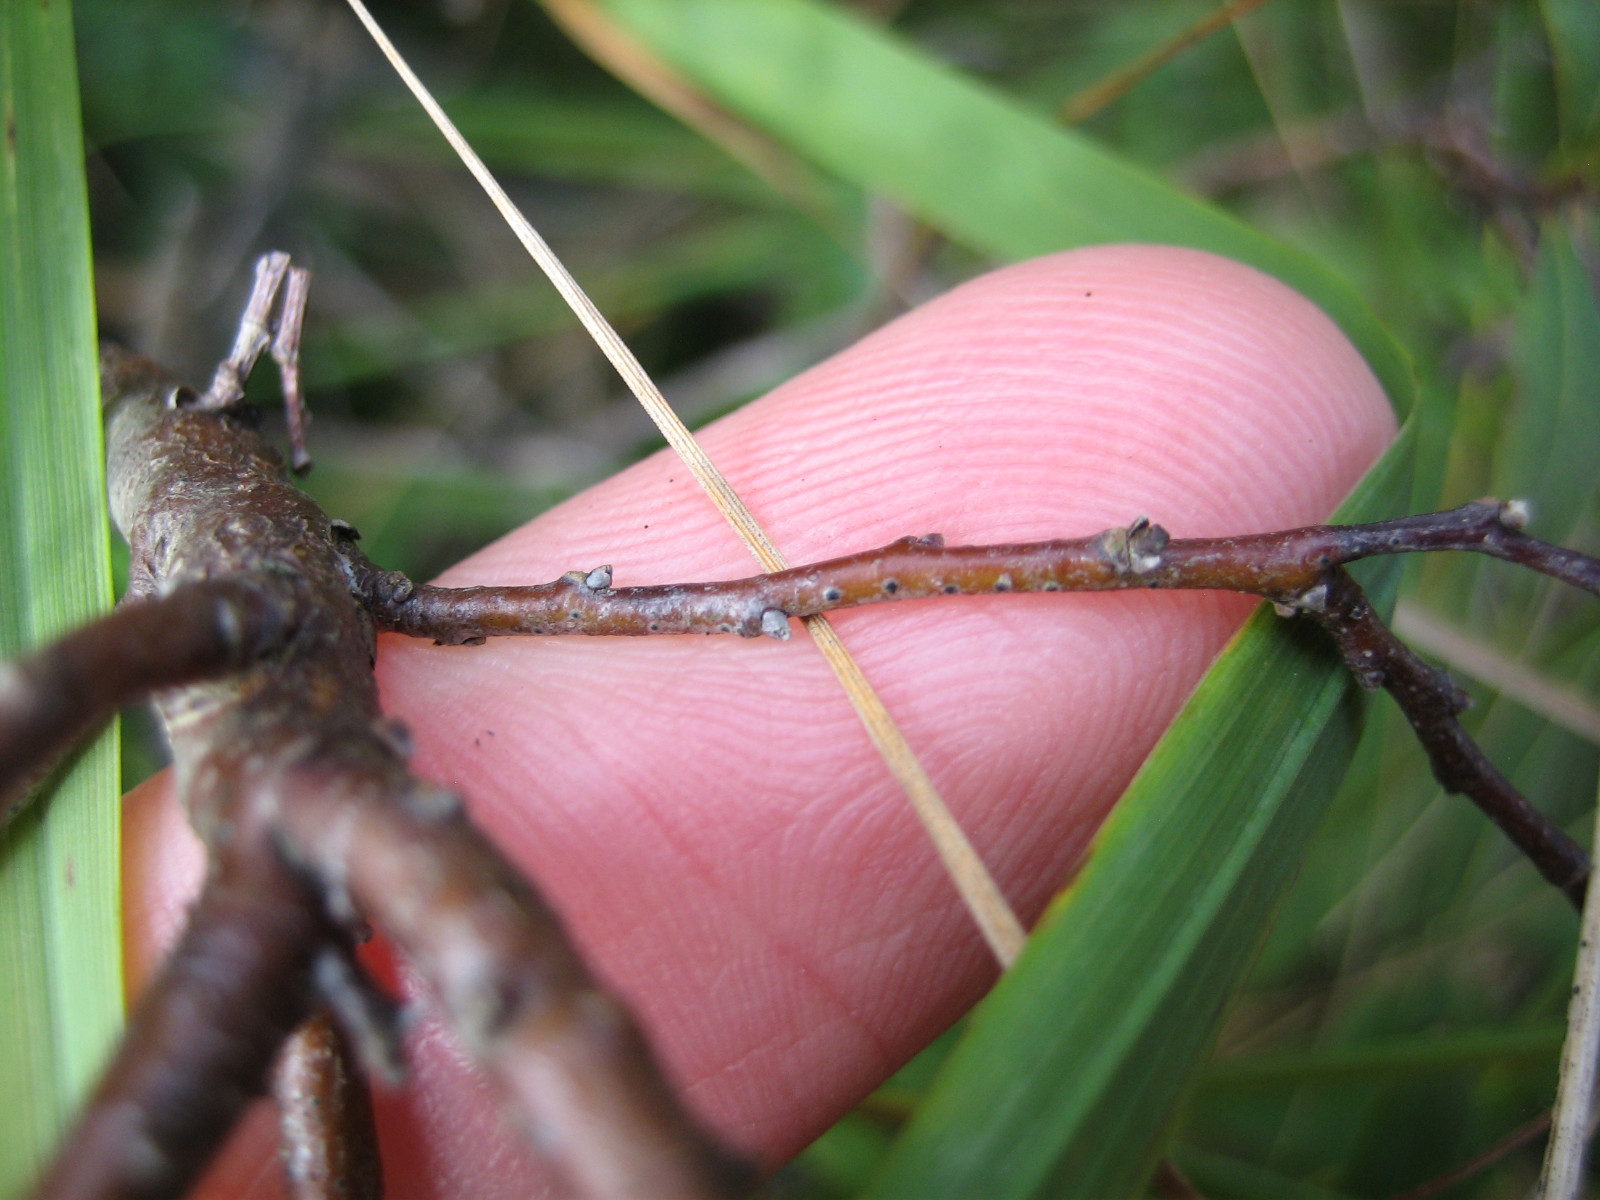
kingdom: Fungi
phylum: Ascomycota
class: Dothideomycetes
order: Dothideales
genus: Mycoglaena
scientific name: Mycoglaena myricae
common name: liden porsprik
